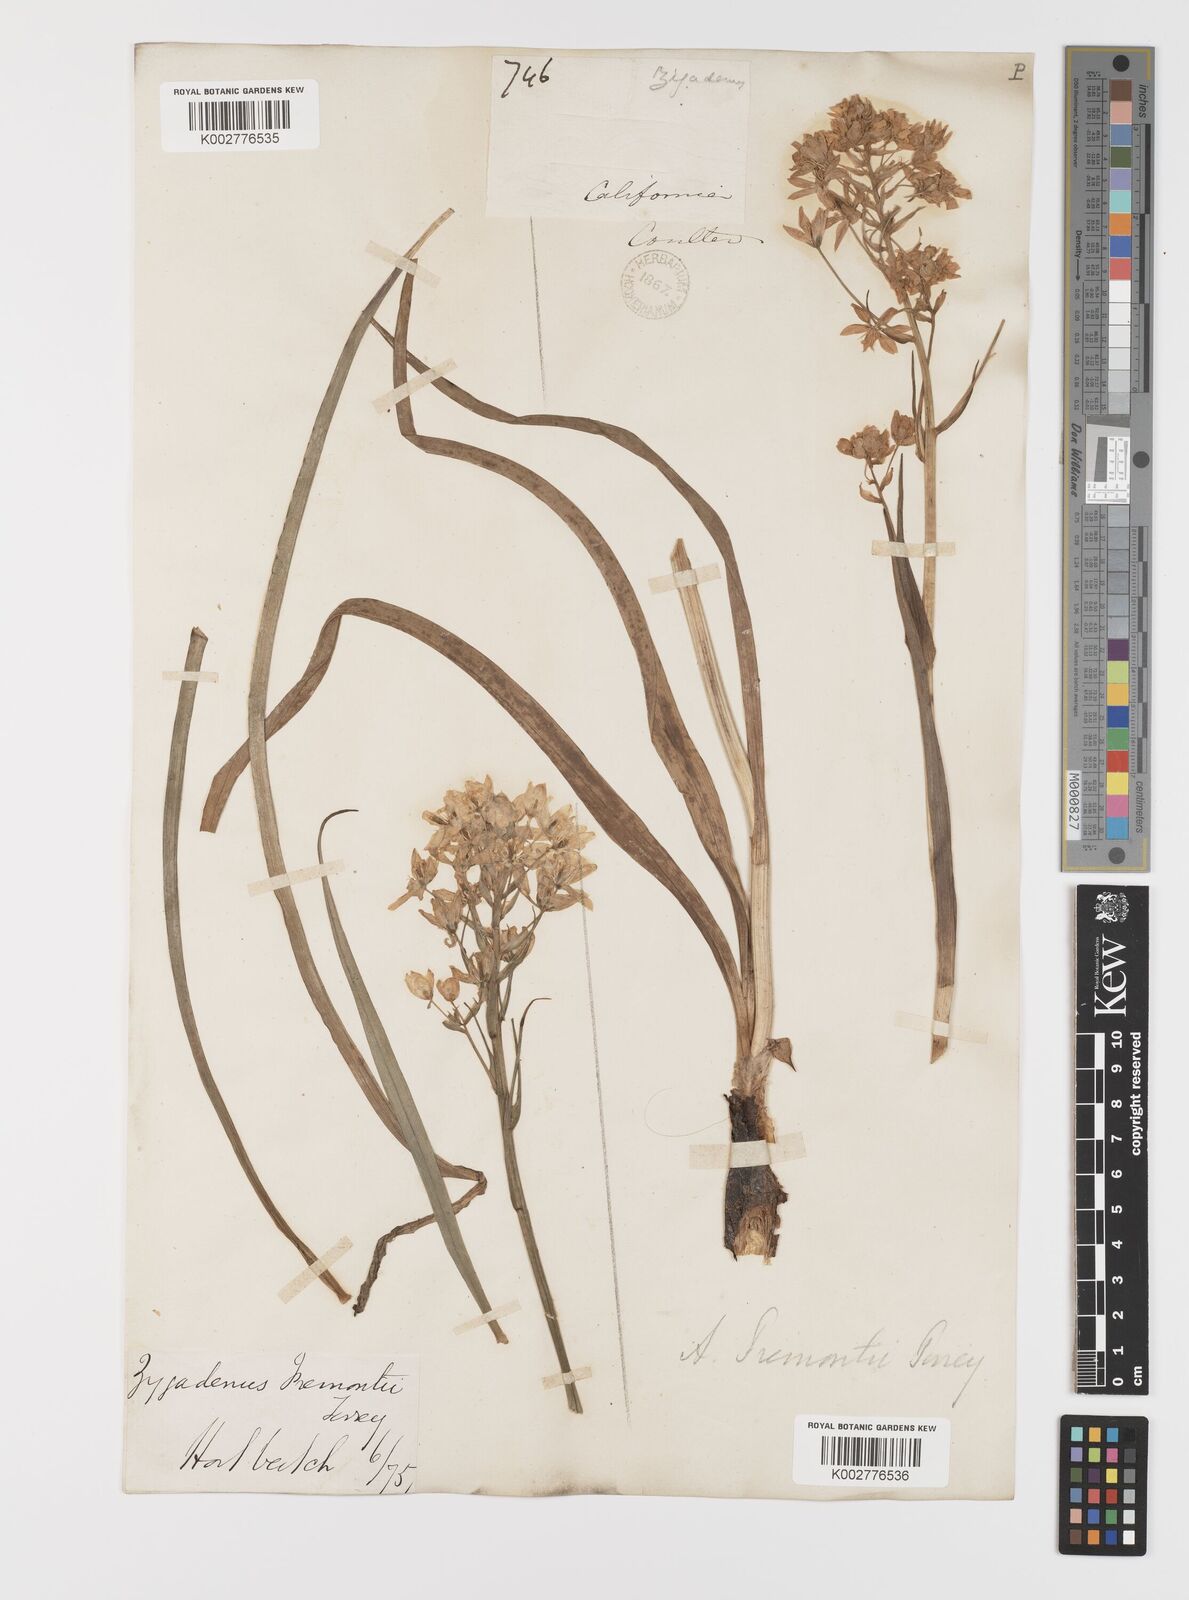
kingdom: Plantae
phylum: Tracheophyta
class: Liliopsida
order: Liliales
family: Melanthiaceae
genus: Toxicoscordion
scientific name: Toxicoscordion fremontii
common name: Fremont's death camas
